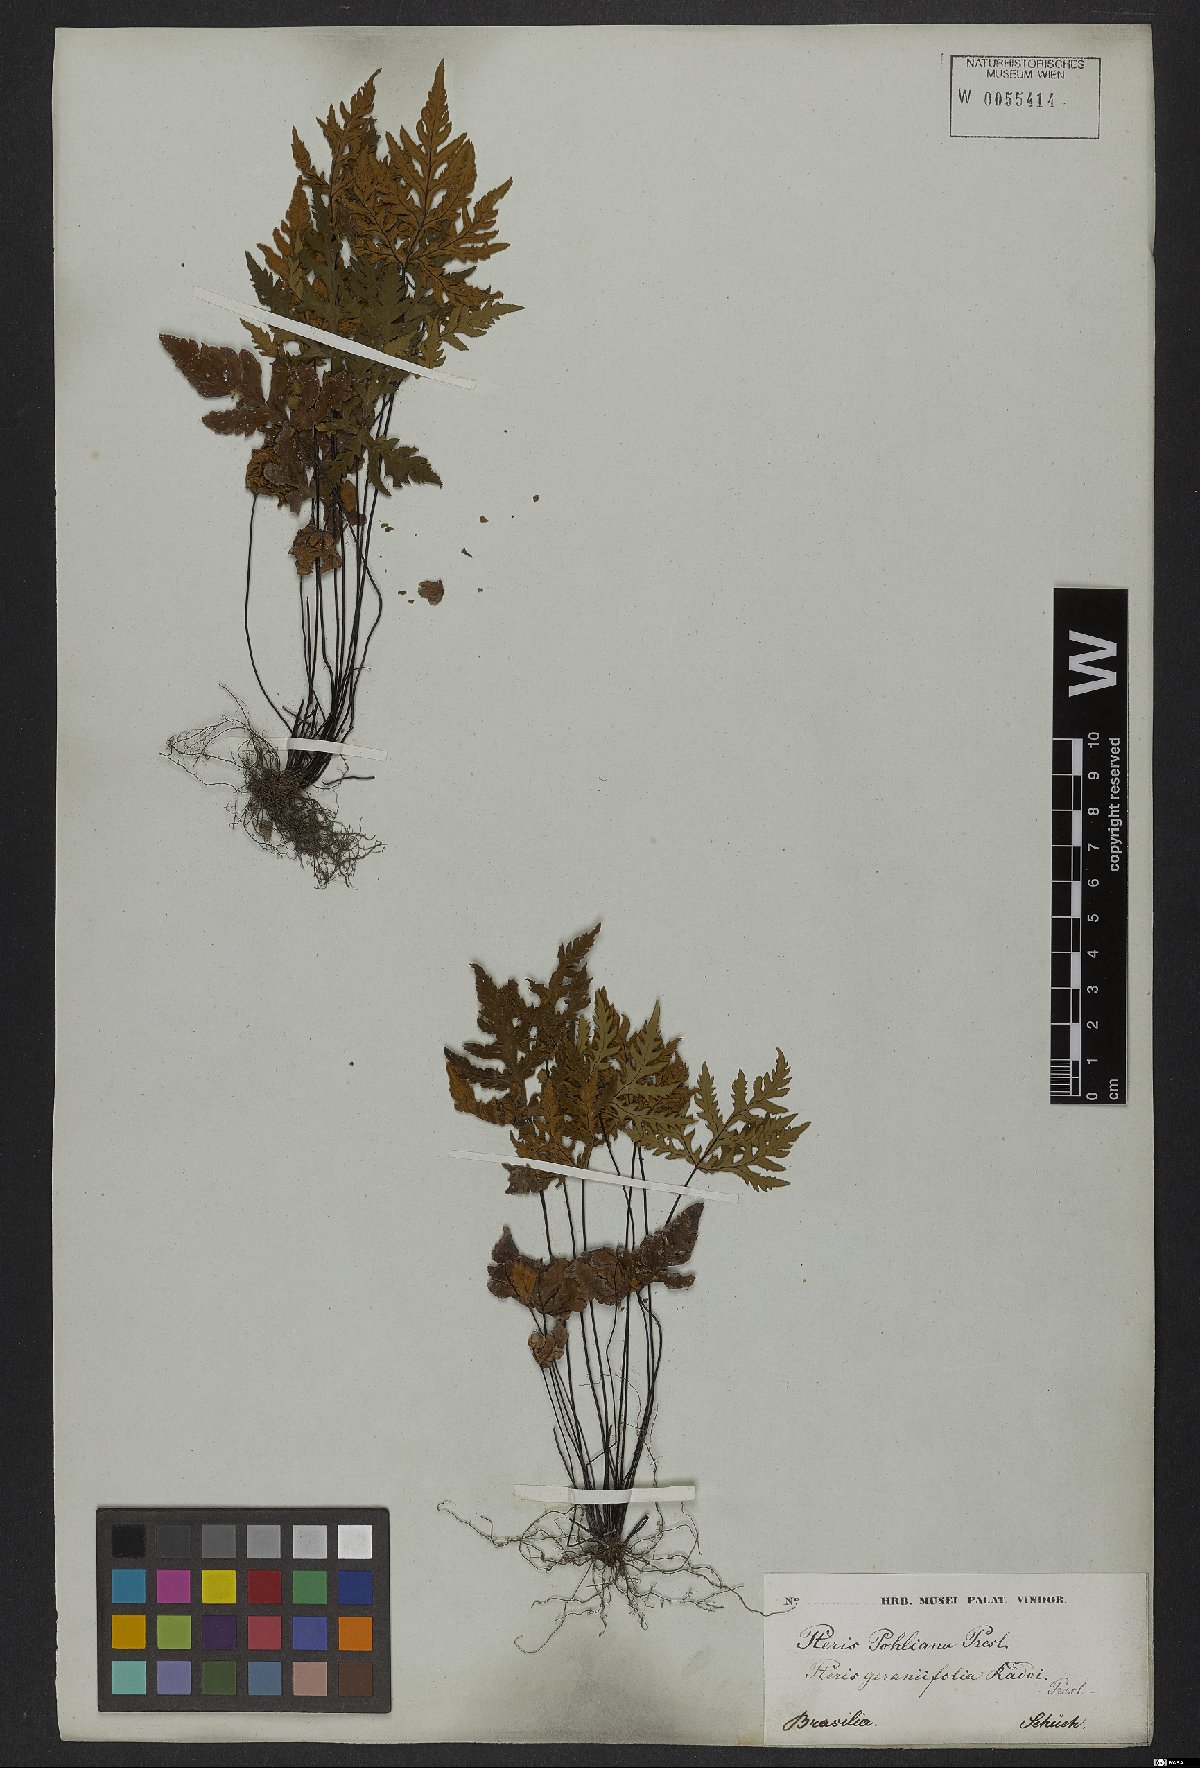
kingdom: Plantae
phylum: Tracheophyta
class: Polypodiopsida
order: Polypodiales
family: Pteridaceae
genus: Doryopteris
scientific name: Doryopteris concolor
